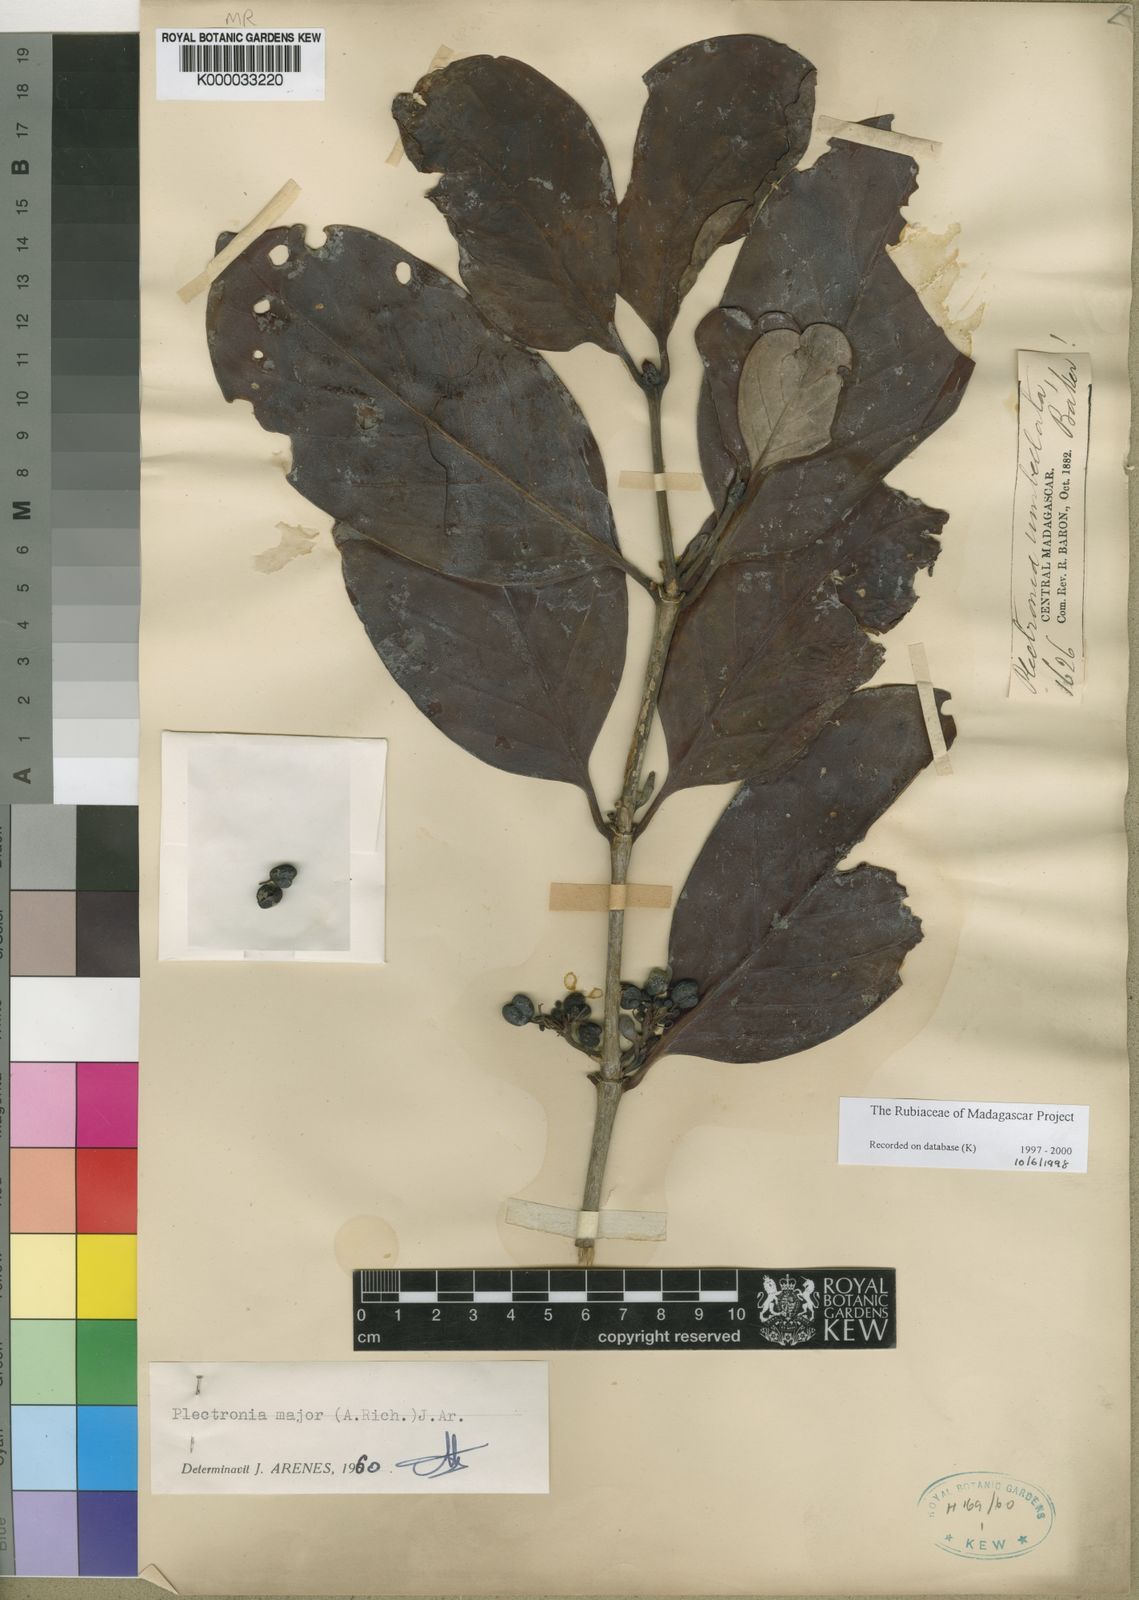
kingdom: Plantae
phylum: Tracheophyta
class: Magnoliopsida
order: Gentianales
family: Rubiaceae
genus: Pyrostria
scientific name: Pyrostria
